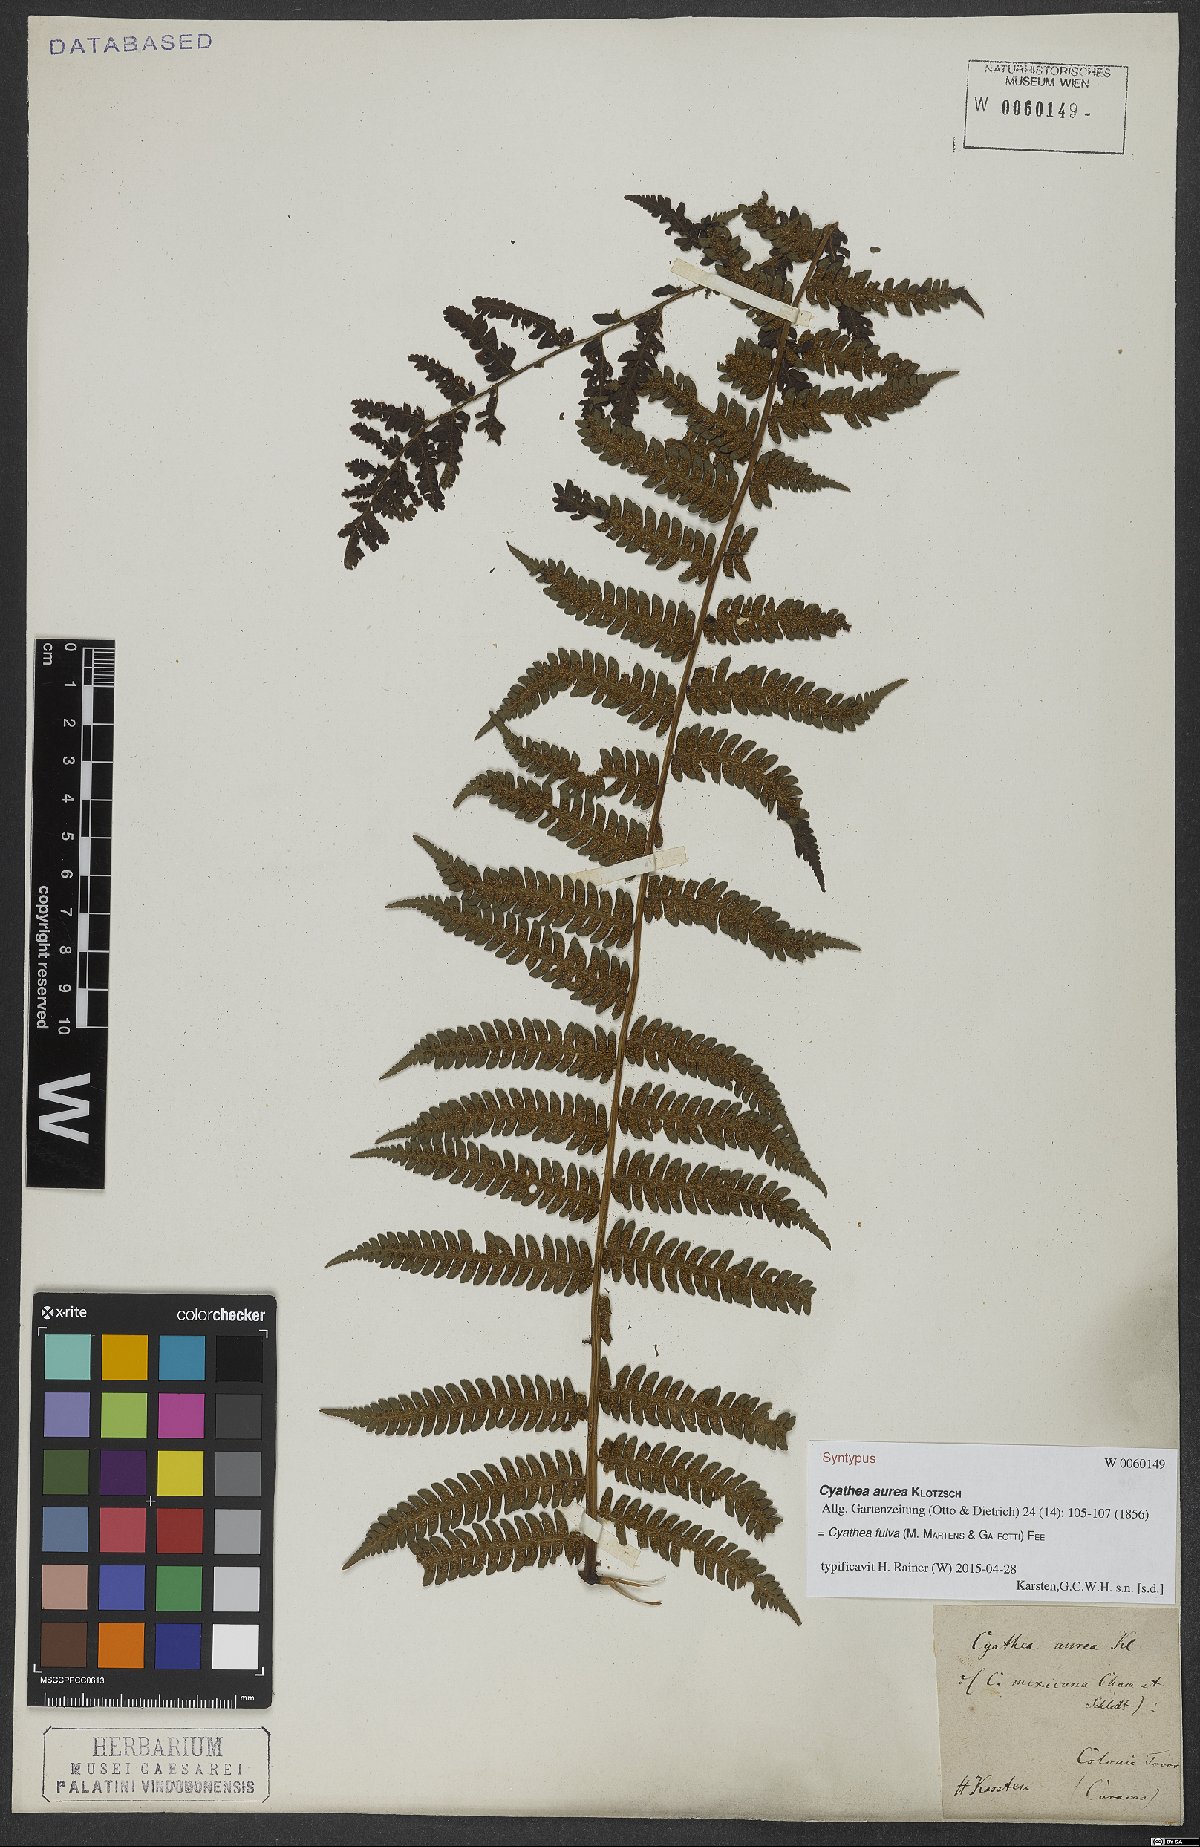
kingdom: Plantae
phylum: Tracheophyta
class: Polypodiopsida
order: Cyatheales
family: Cyatheaceae
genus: Cyathea
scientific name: Cyathea fulva
